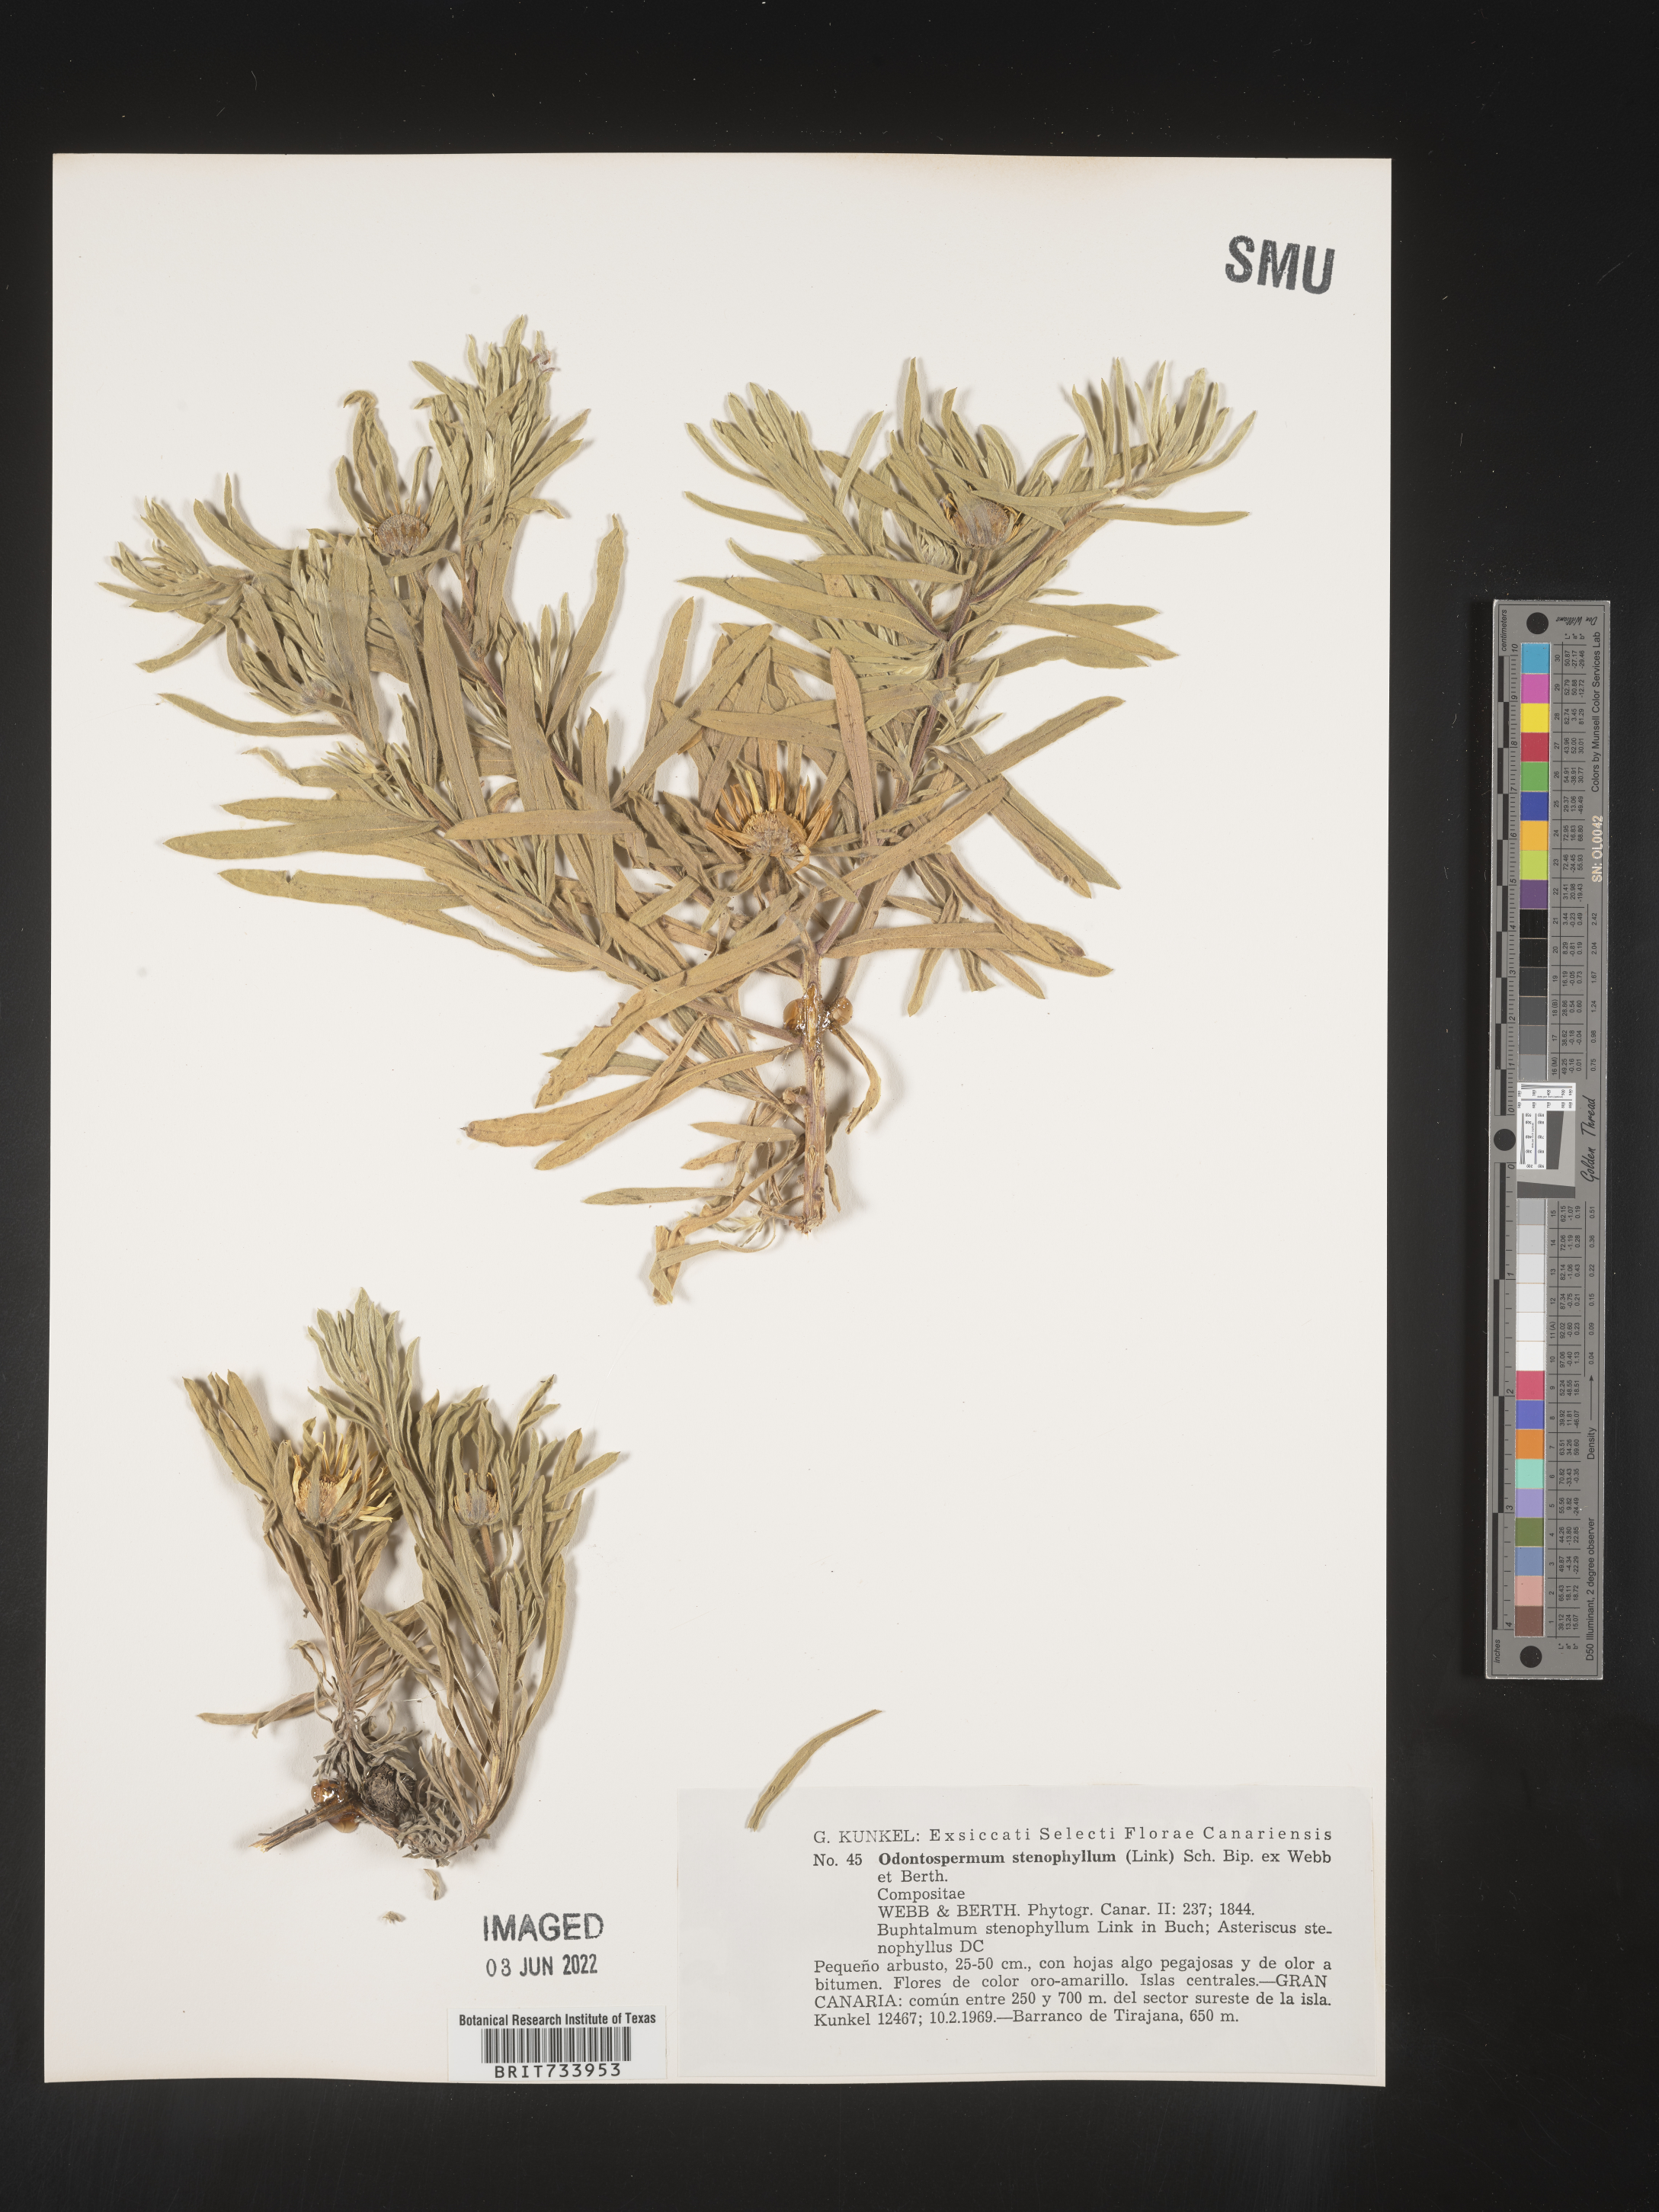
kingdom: Plantae
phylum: Tracheophyta
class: Magnoliopsida
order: Asterales
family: Asteraceae
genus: Asteriscus
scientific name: Asteriscus
